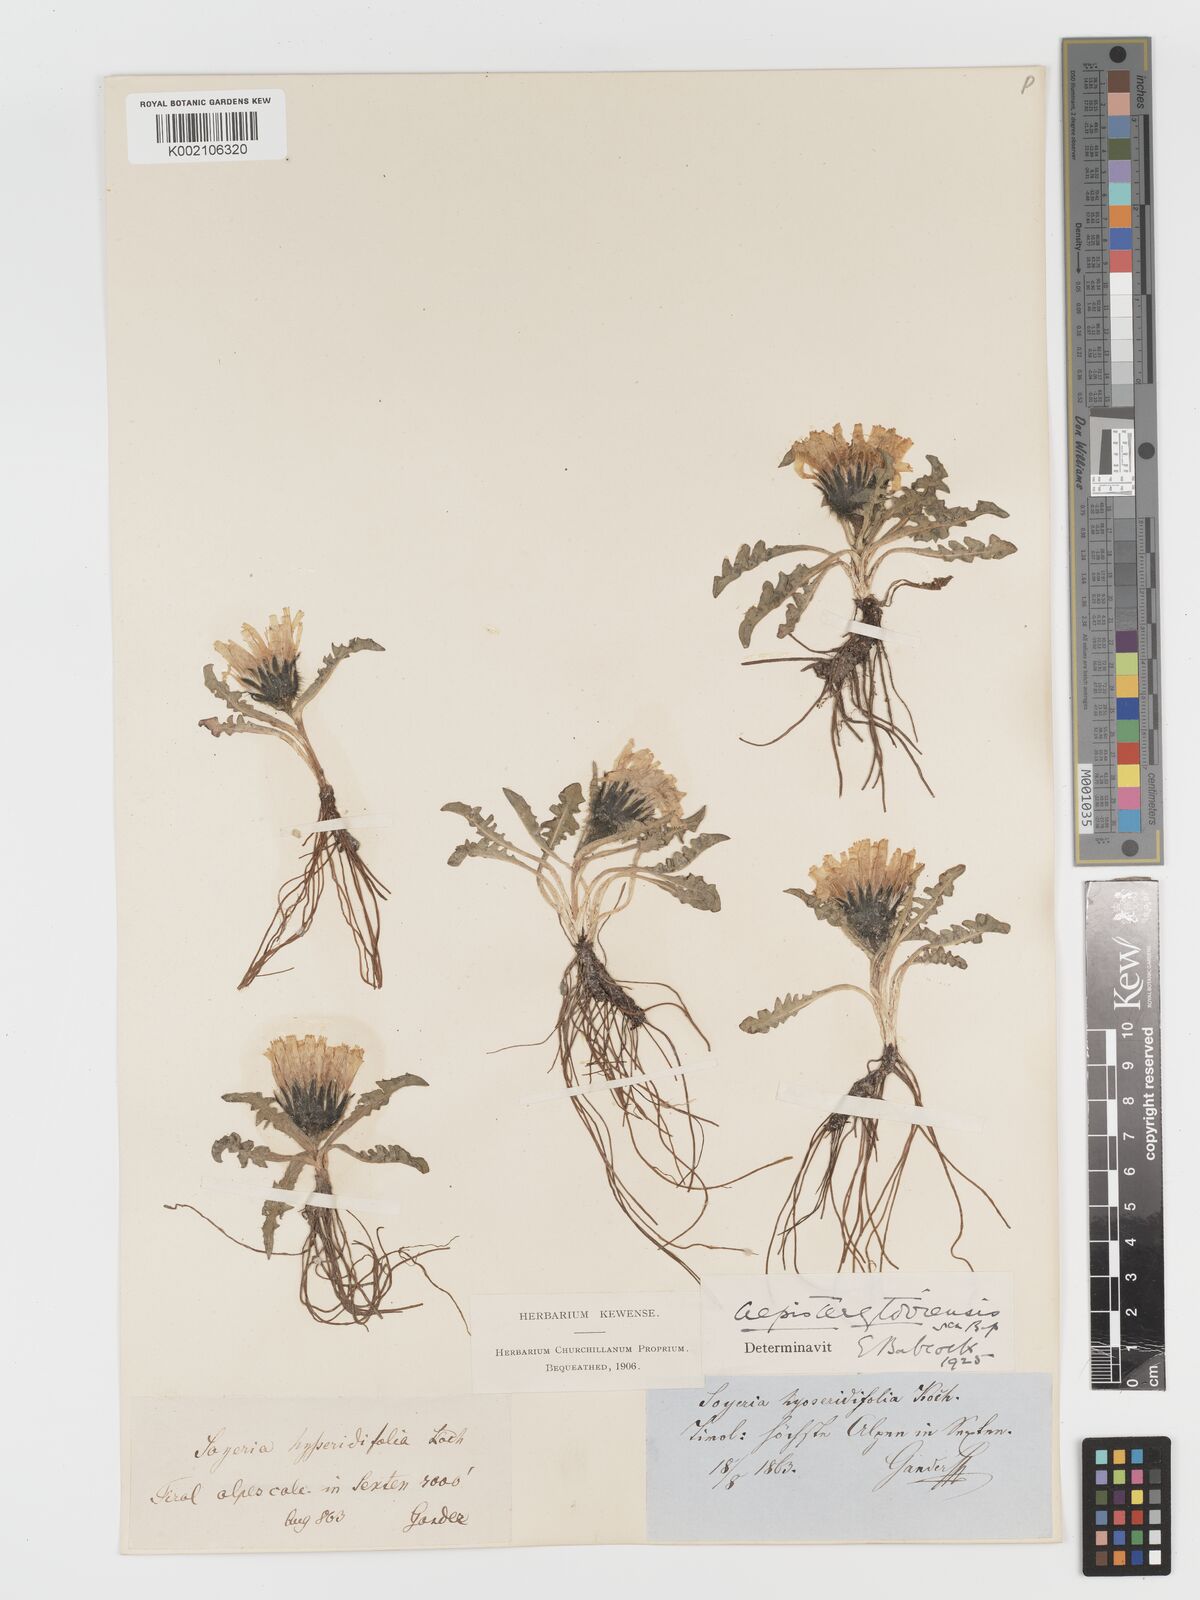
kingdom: Plantae
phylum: Tracheophyta
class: Magnoliopsida
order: Asterales
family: Asteraceae
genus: Crepis
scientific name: Crepis terglouensis
